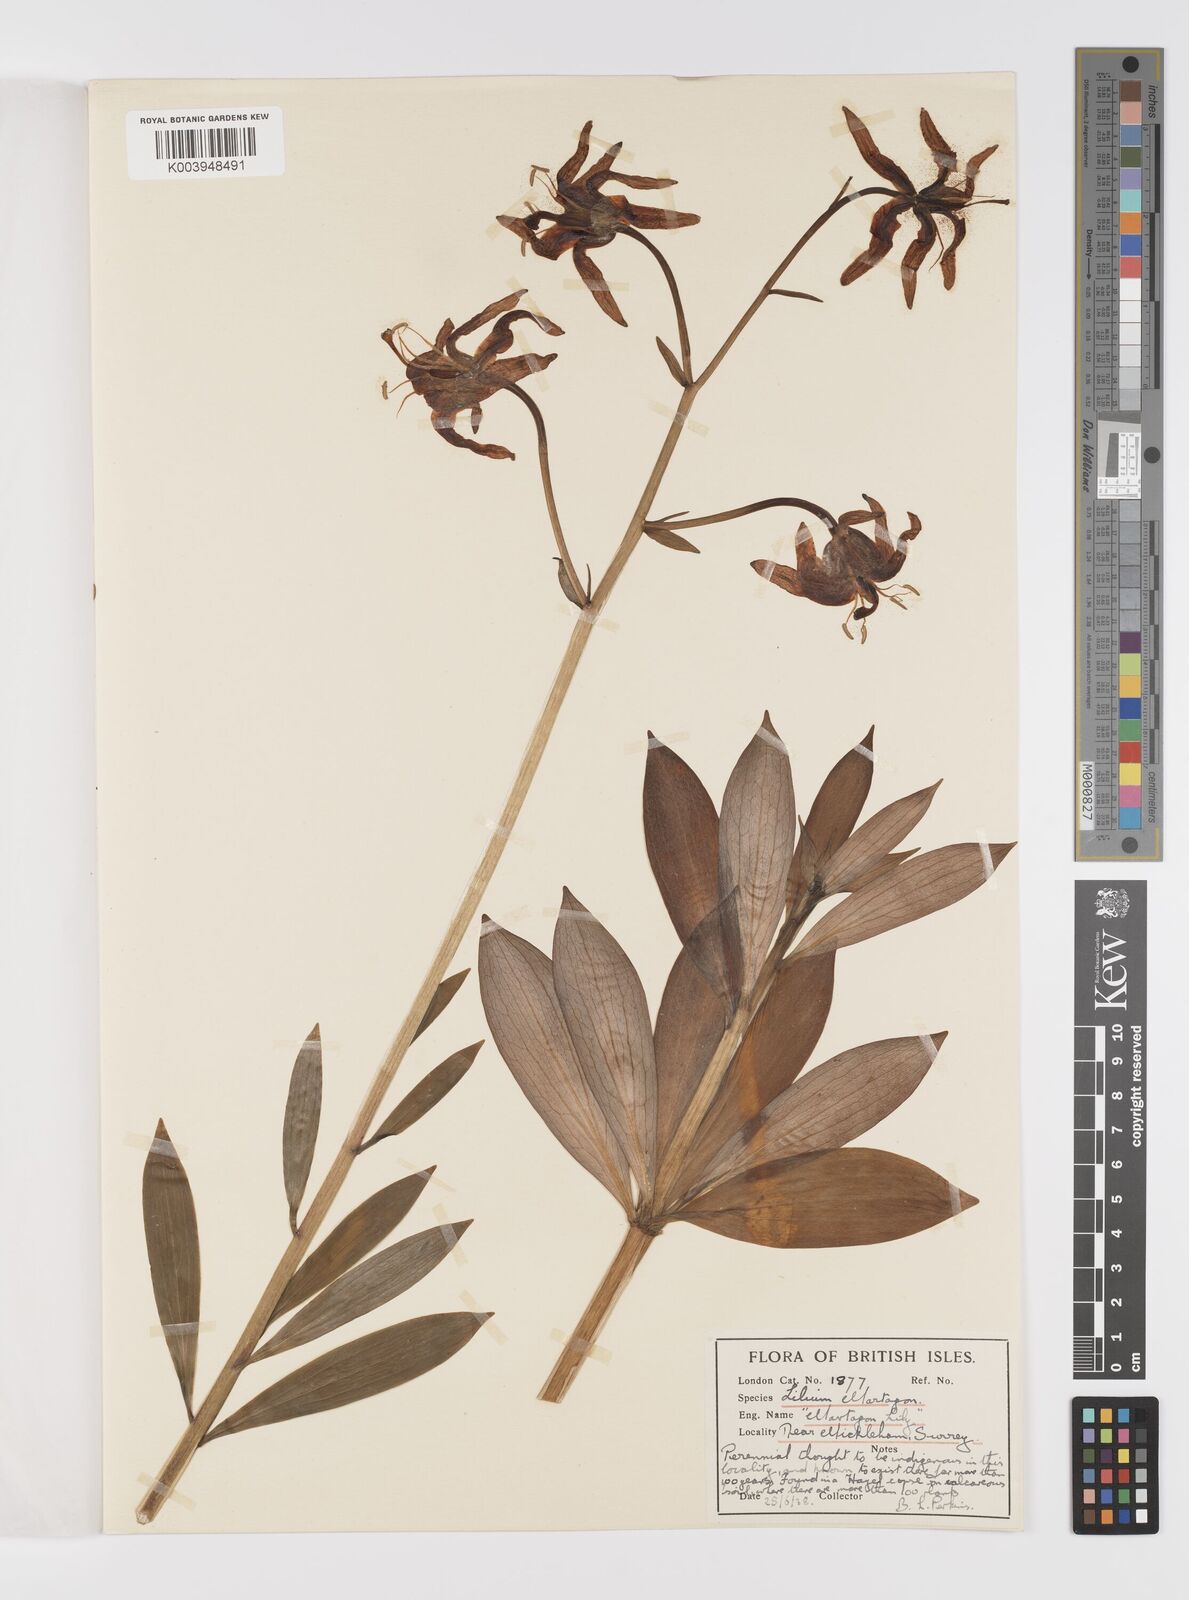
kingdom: Plantae
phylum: Tracheophyta
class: Liliopsida
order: Liliales
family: Liliaceae
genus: Lilium
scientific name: Lilium martagon
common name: Martagon lily
